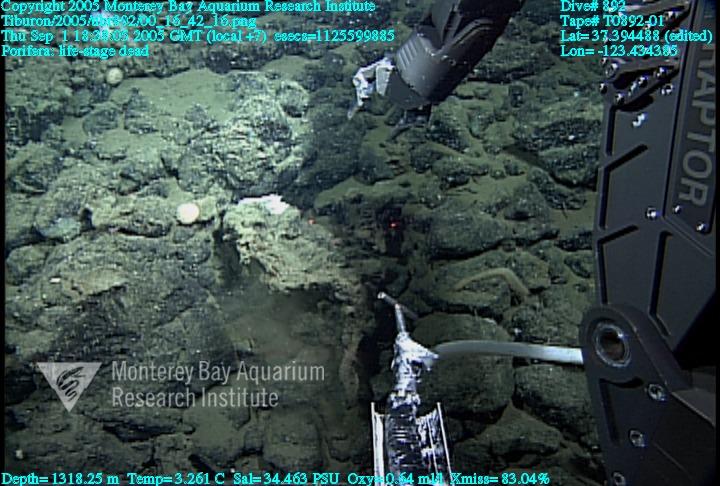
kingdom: Animalia
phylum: Porifera
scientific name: Porifera
